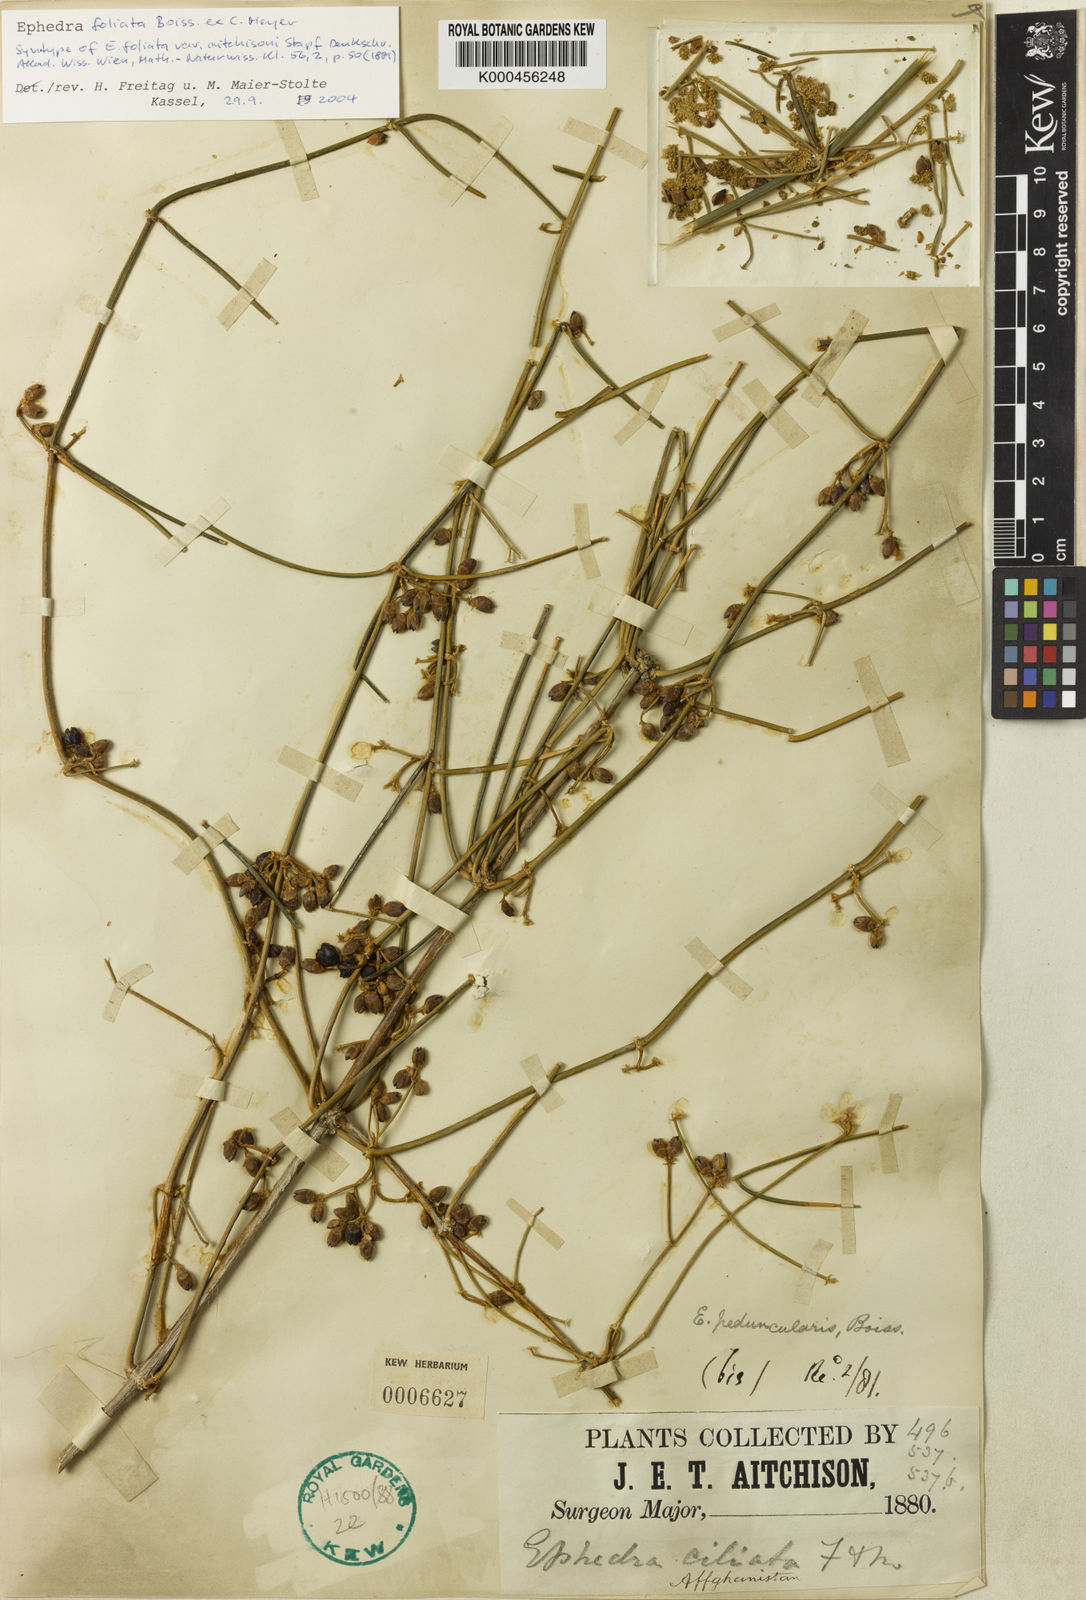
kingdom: Plantae
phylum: Tracheophyta
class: Gnetopsida
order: Ephedrales
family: Ephedraceae
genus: Ephedra
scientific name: Ephedra ciliata
